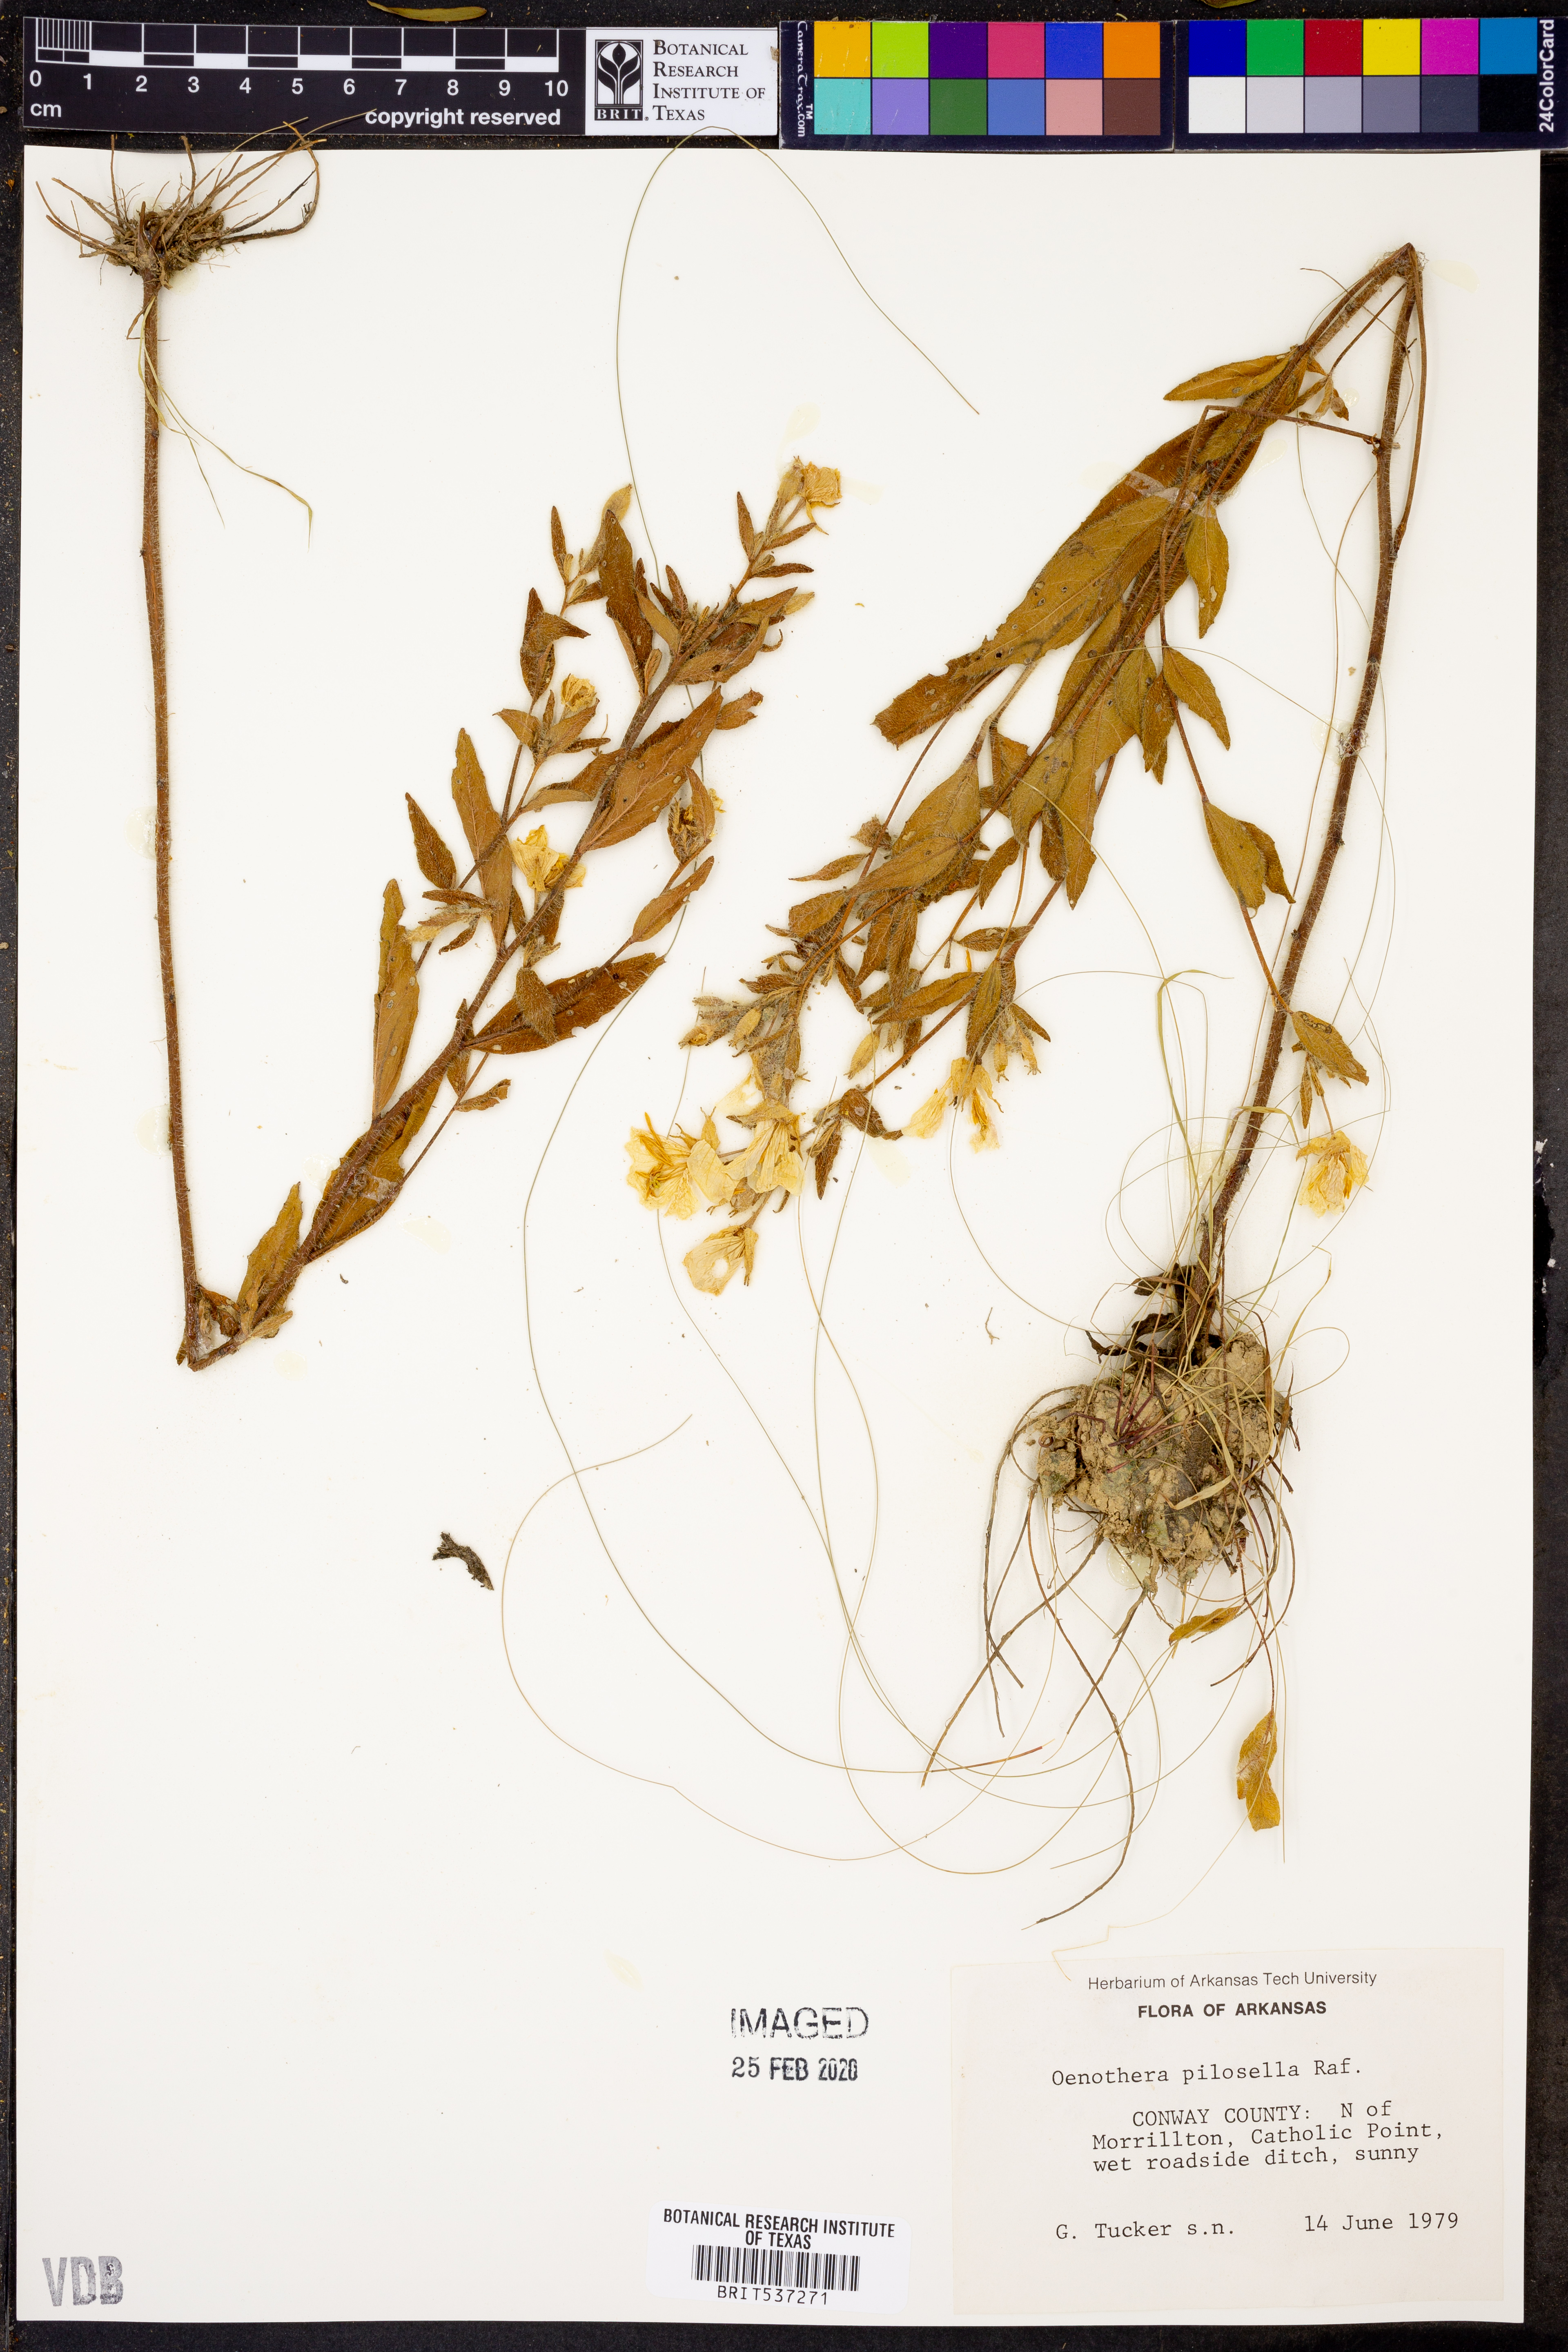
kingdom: Plantae
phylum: Tracheophyta
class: Magnoliopsida
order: Myrtales
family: Onagraceae
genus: Oenothera
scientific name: Oenothera pilosella
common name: Finely-pilose evening-primrose
